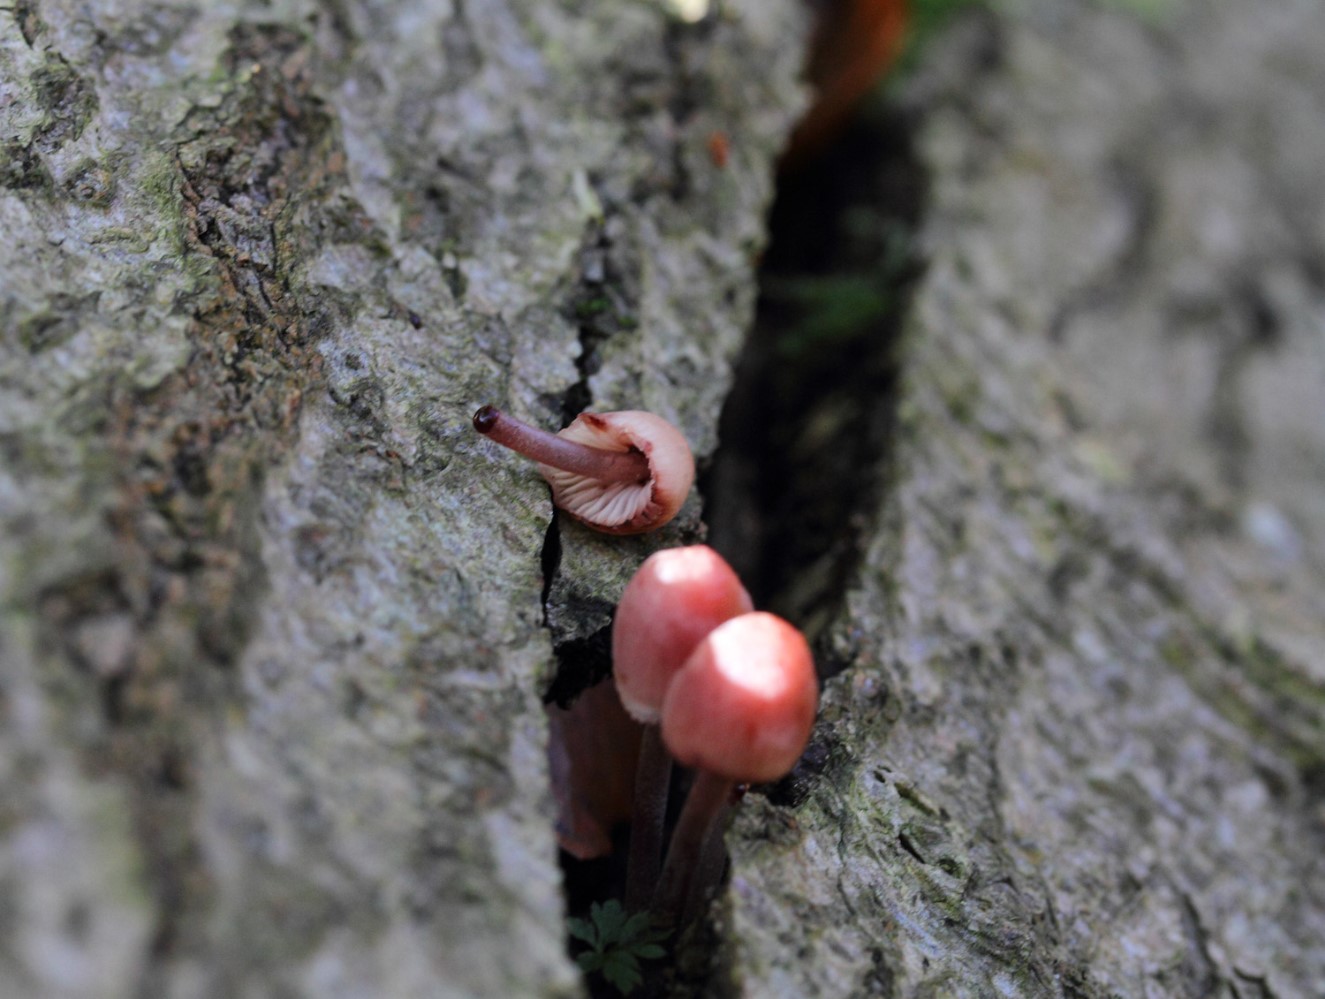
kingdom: Fungi
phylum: Basidiomycota
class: Agaricomycetes
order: Agaricales
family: Mycenaceae
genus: Mycena
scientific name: Mycena haematopus
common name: blødende huesvamp
